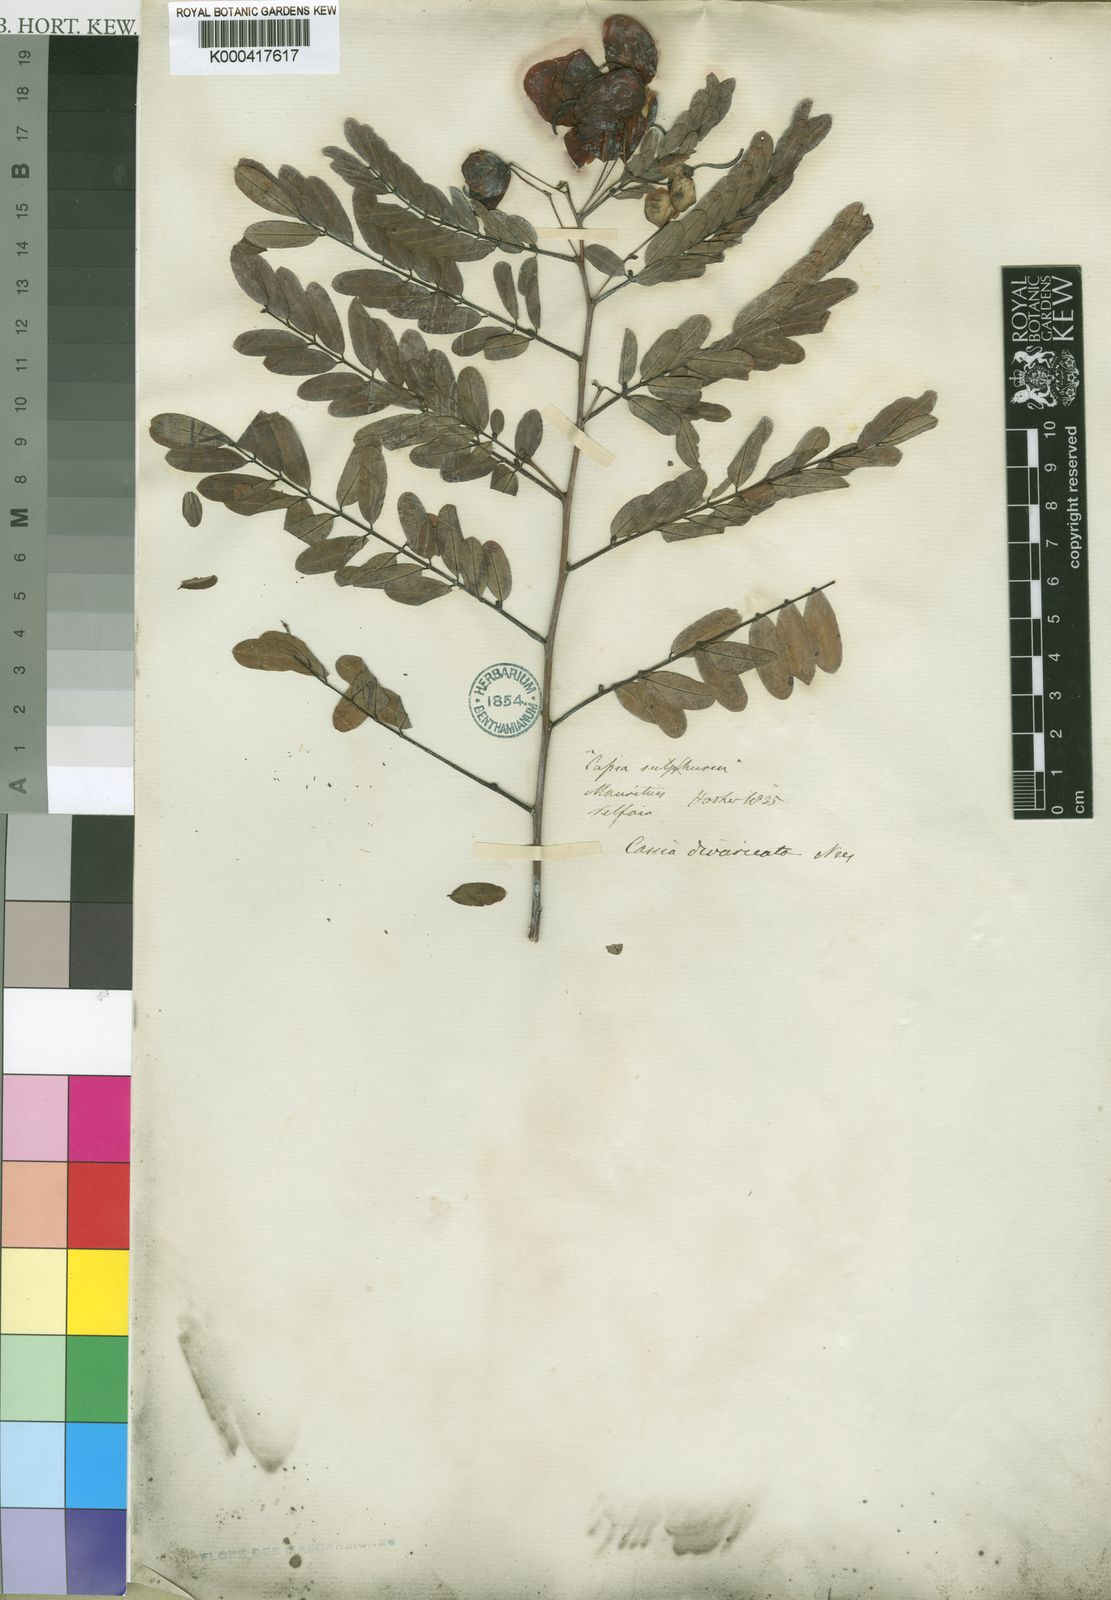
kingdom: Plantae
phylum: Tracheophyta
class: Magnoliopsida
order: Fabales
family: Fabaceae
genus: Senna
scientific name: Senna divaricata
